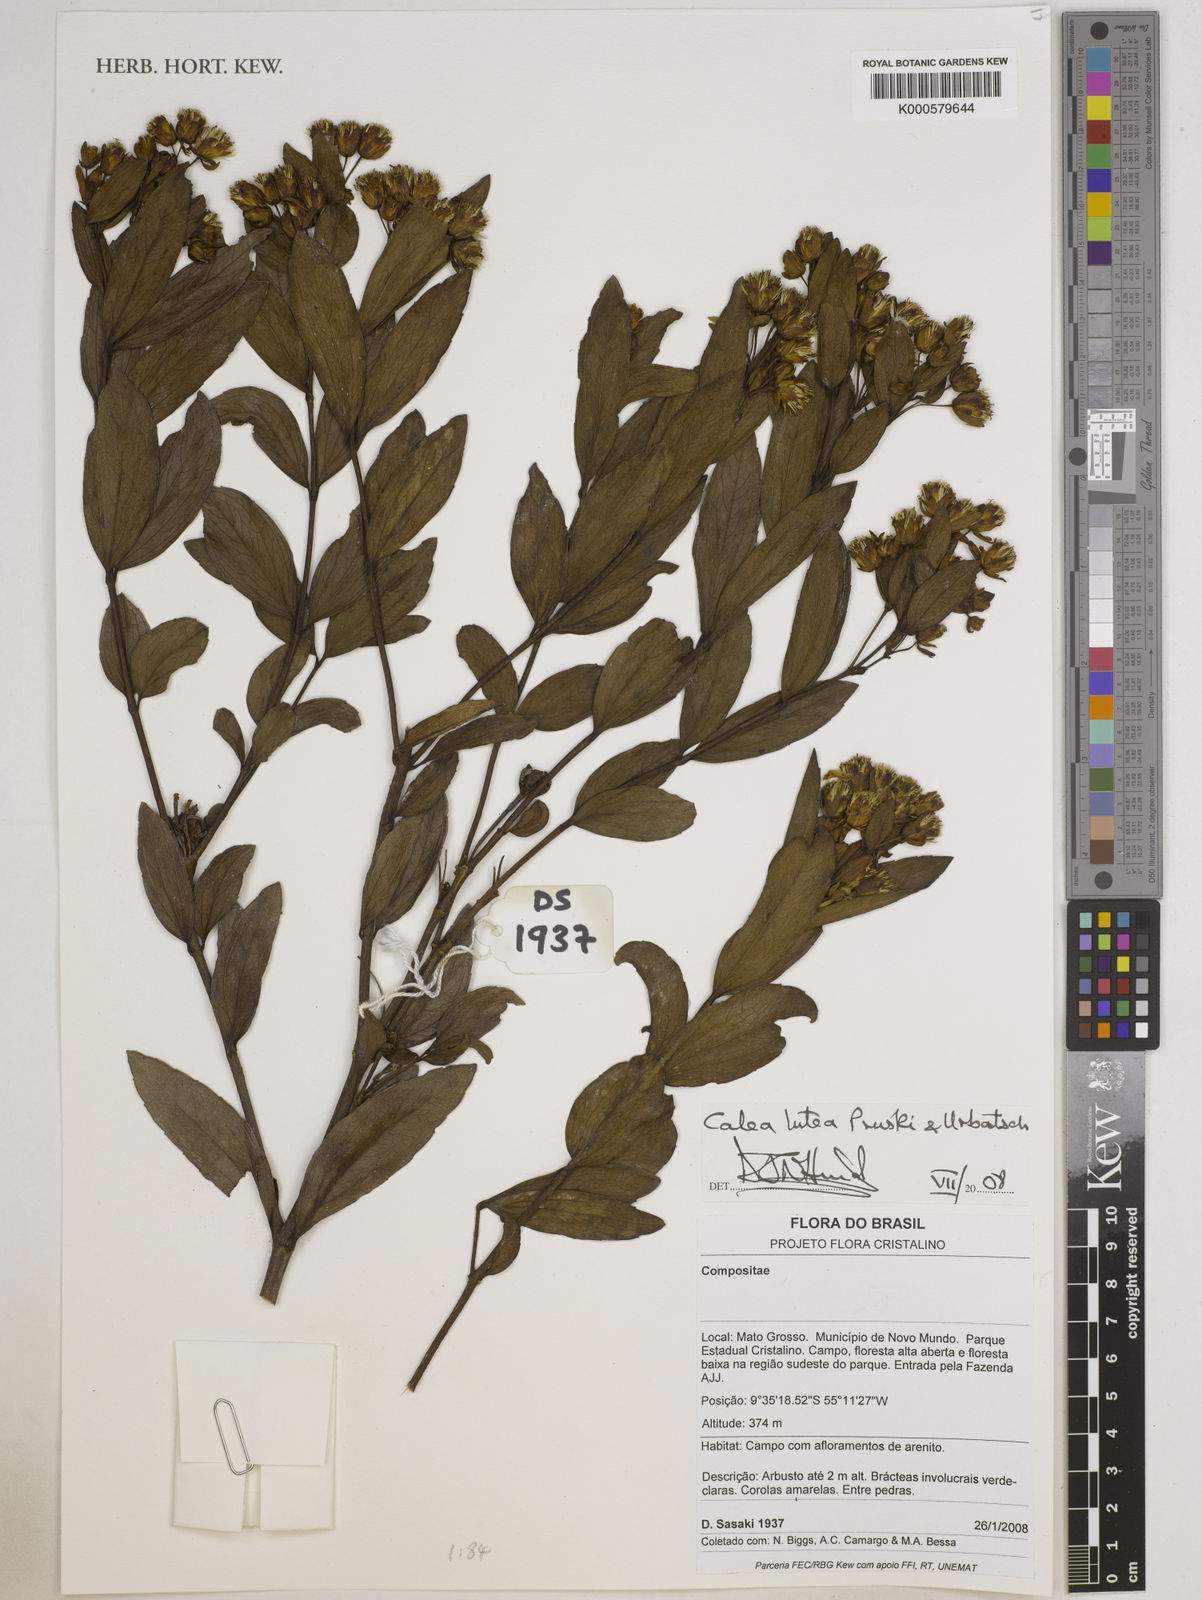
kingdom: Plantae
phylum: Tracheophyta
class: Magnoliopsida
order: Asterales
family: Asteraceae
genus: Calea
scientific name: Calea lutea
